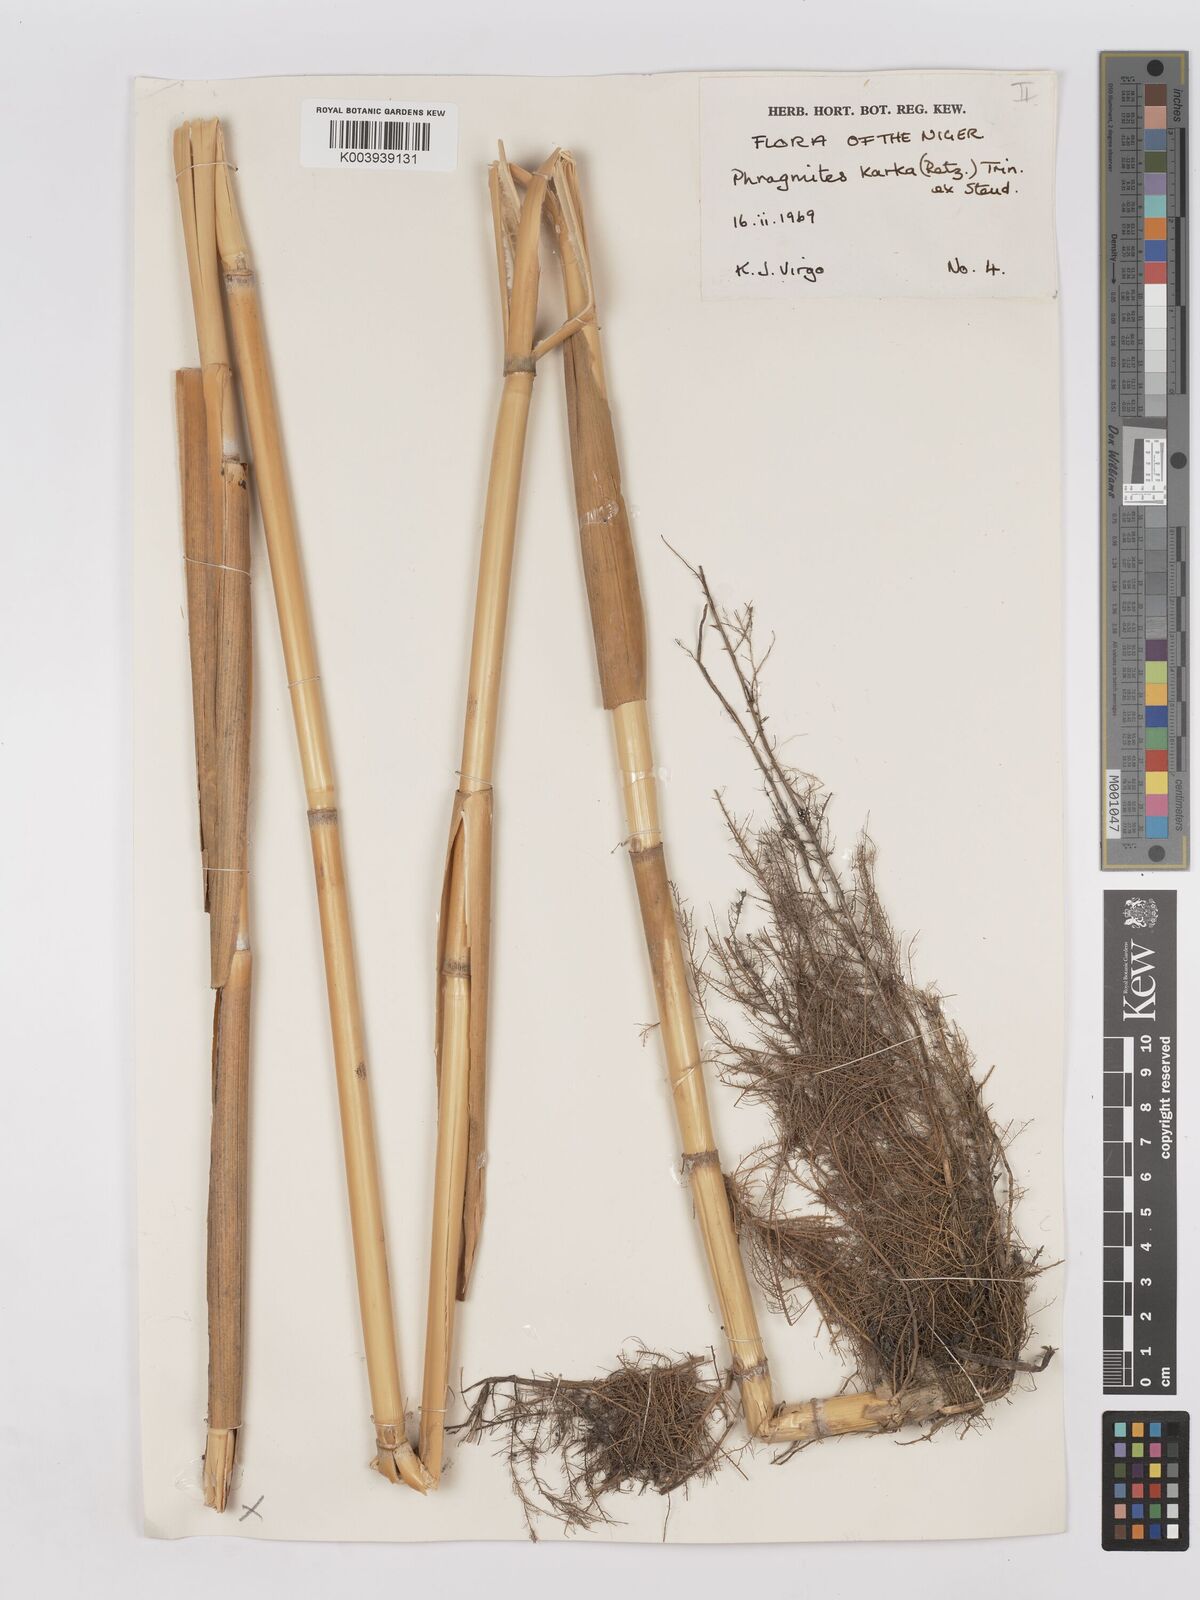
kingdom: Plantae
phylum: Tracheophyta
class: Liliopsida
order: Poales
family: Poaceae
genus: Phragmites
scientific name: Phragmites karka
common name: Tropical reed
